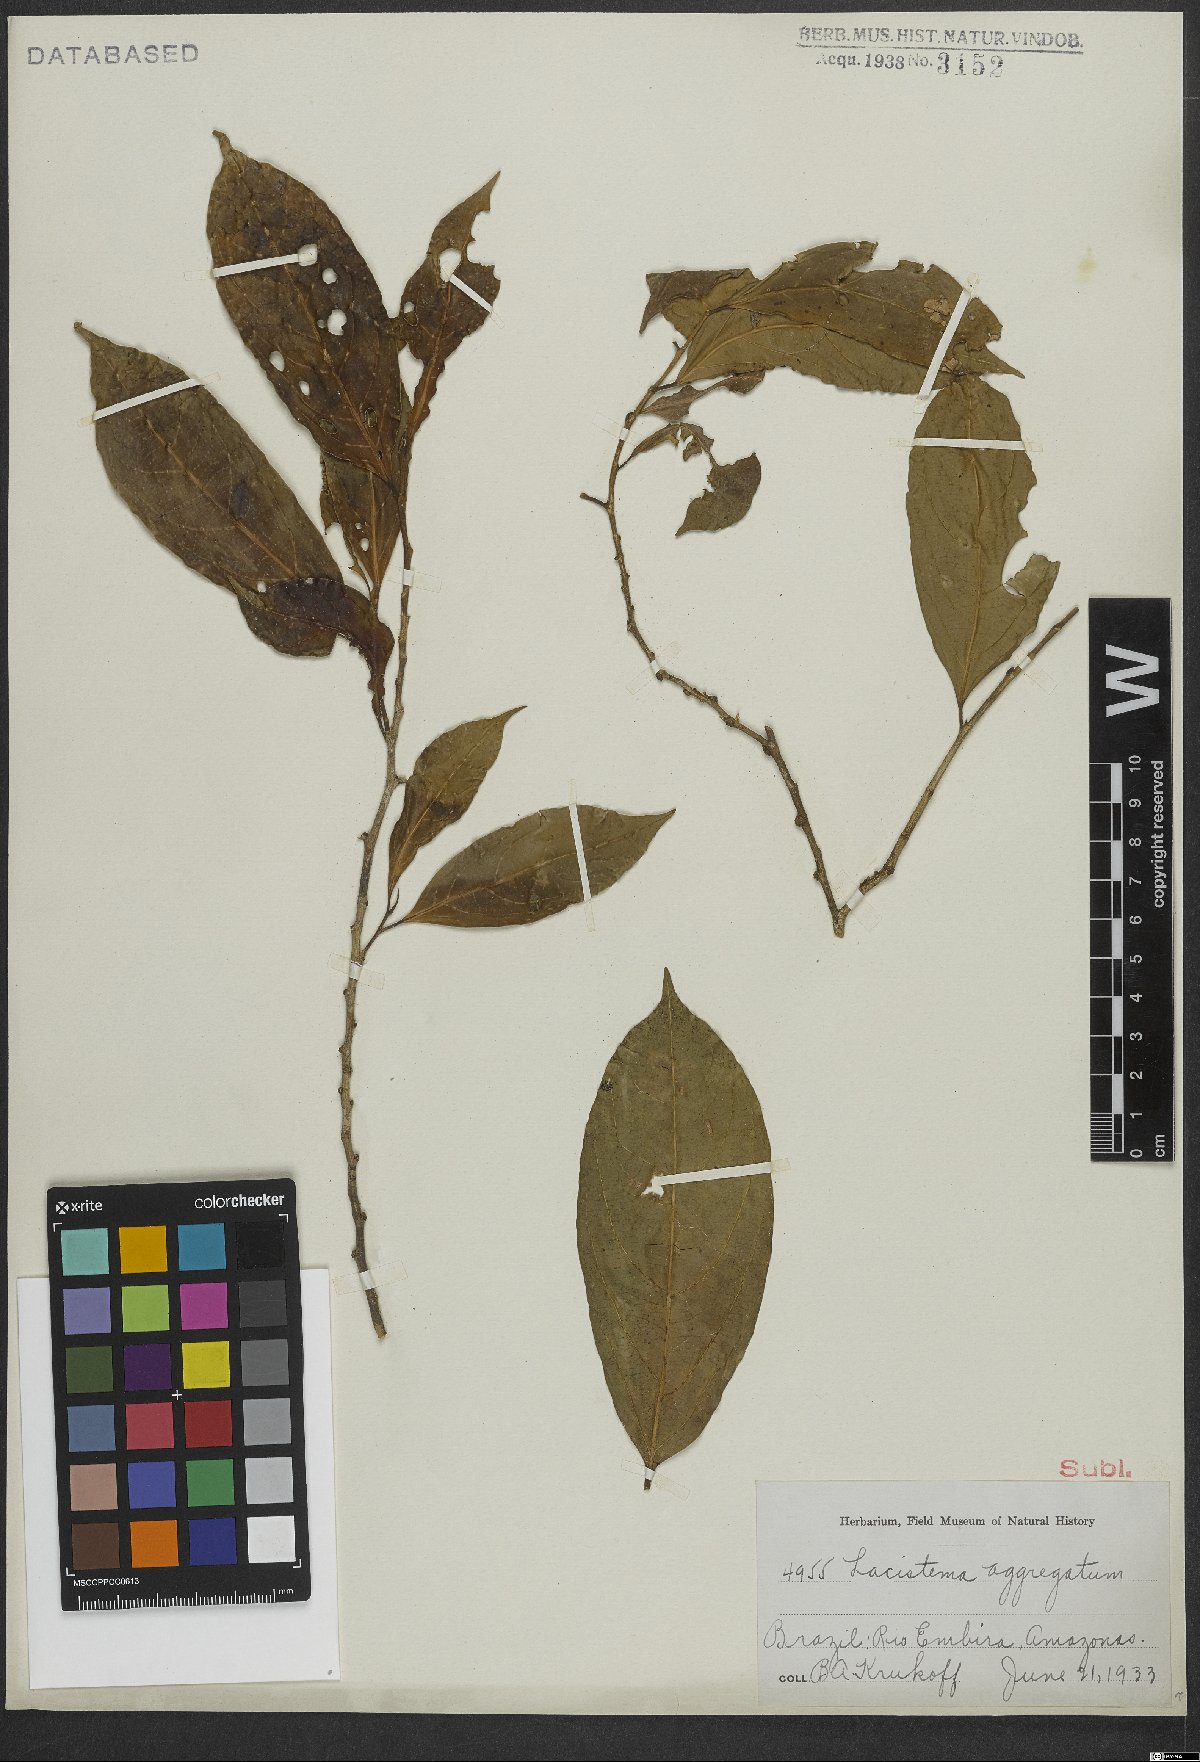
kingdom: Plantae
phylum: Tracheophyta
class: Magnoliopsida
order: Malpighiales
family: Lacistemataceae
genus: Lacistema
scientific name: Lacistema aggregatum
